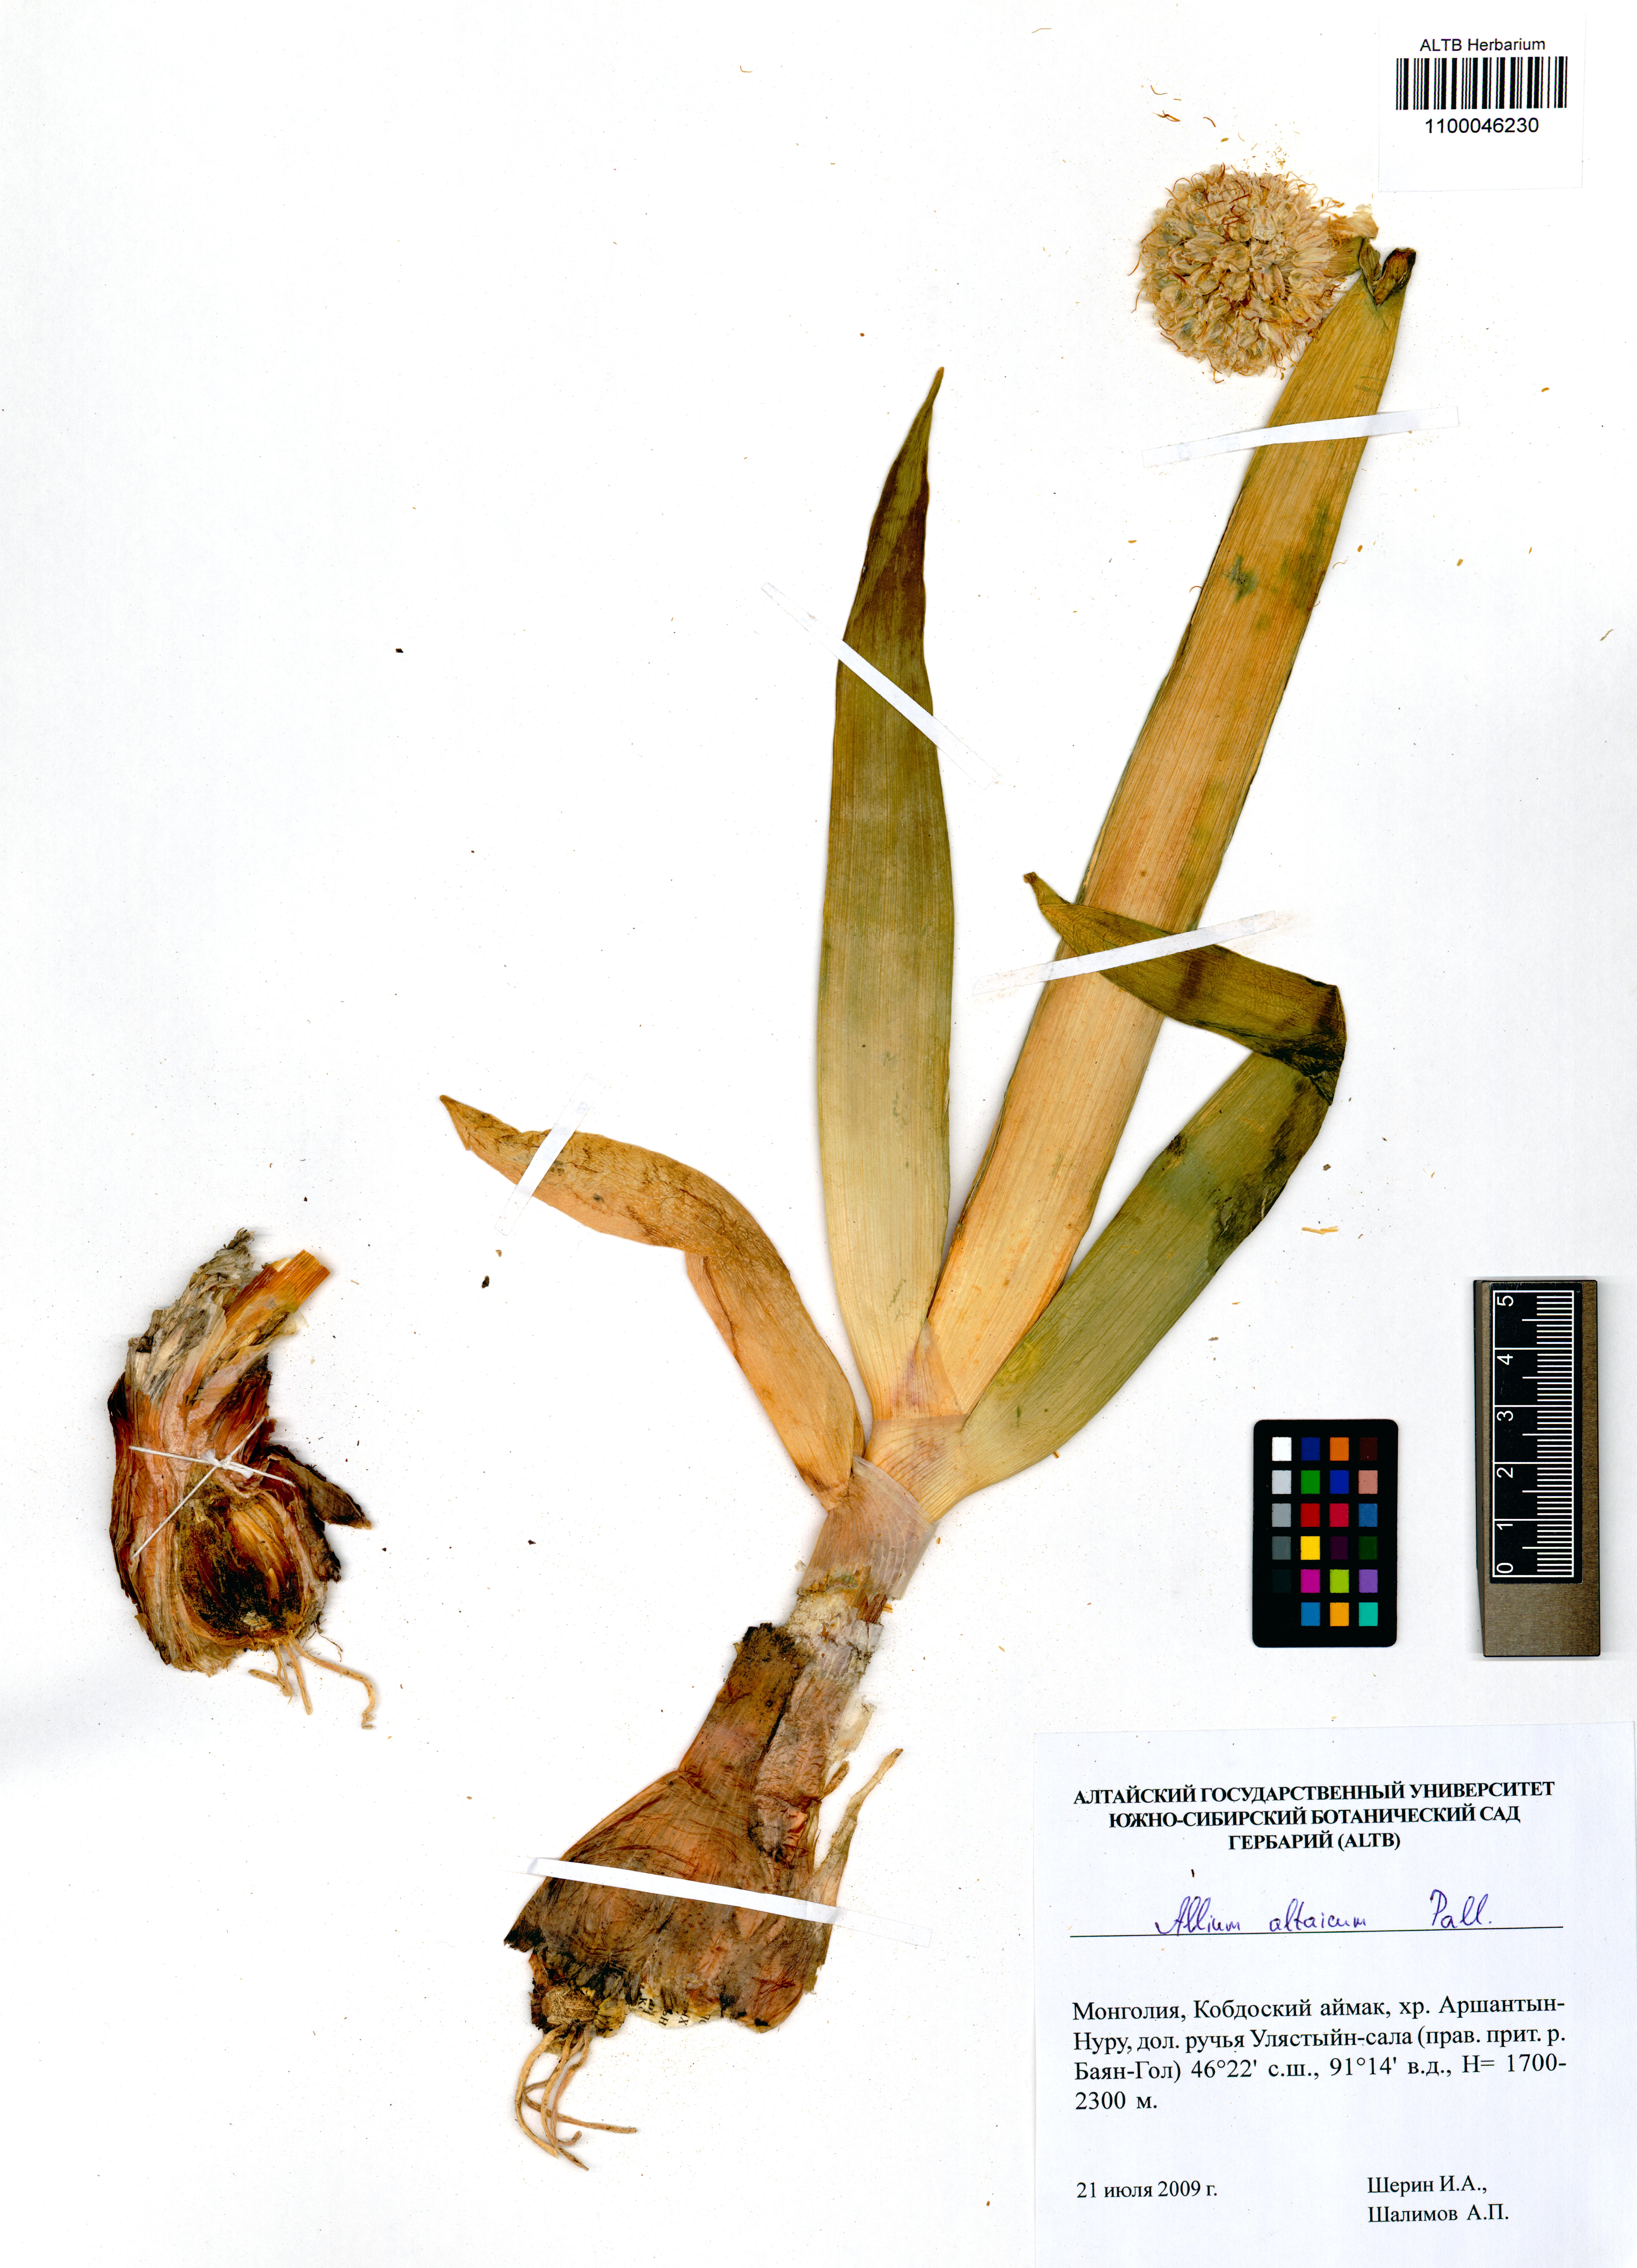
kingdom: Plantae
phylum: Tracheophyta
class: Liliopsida
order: Asparagales
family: Amaryllidaceae
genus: Allium
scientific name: Allium altaicum
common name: Altai onion
